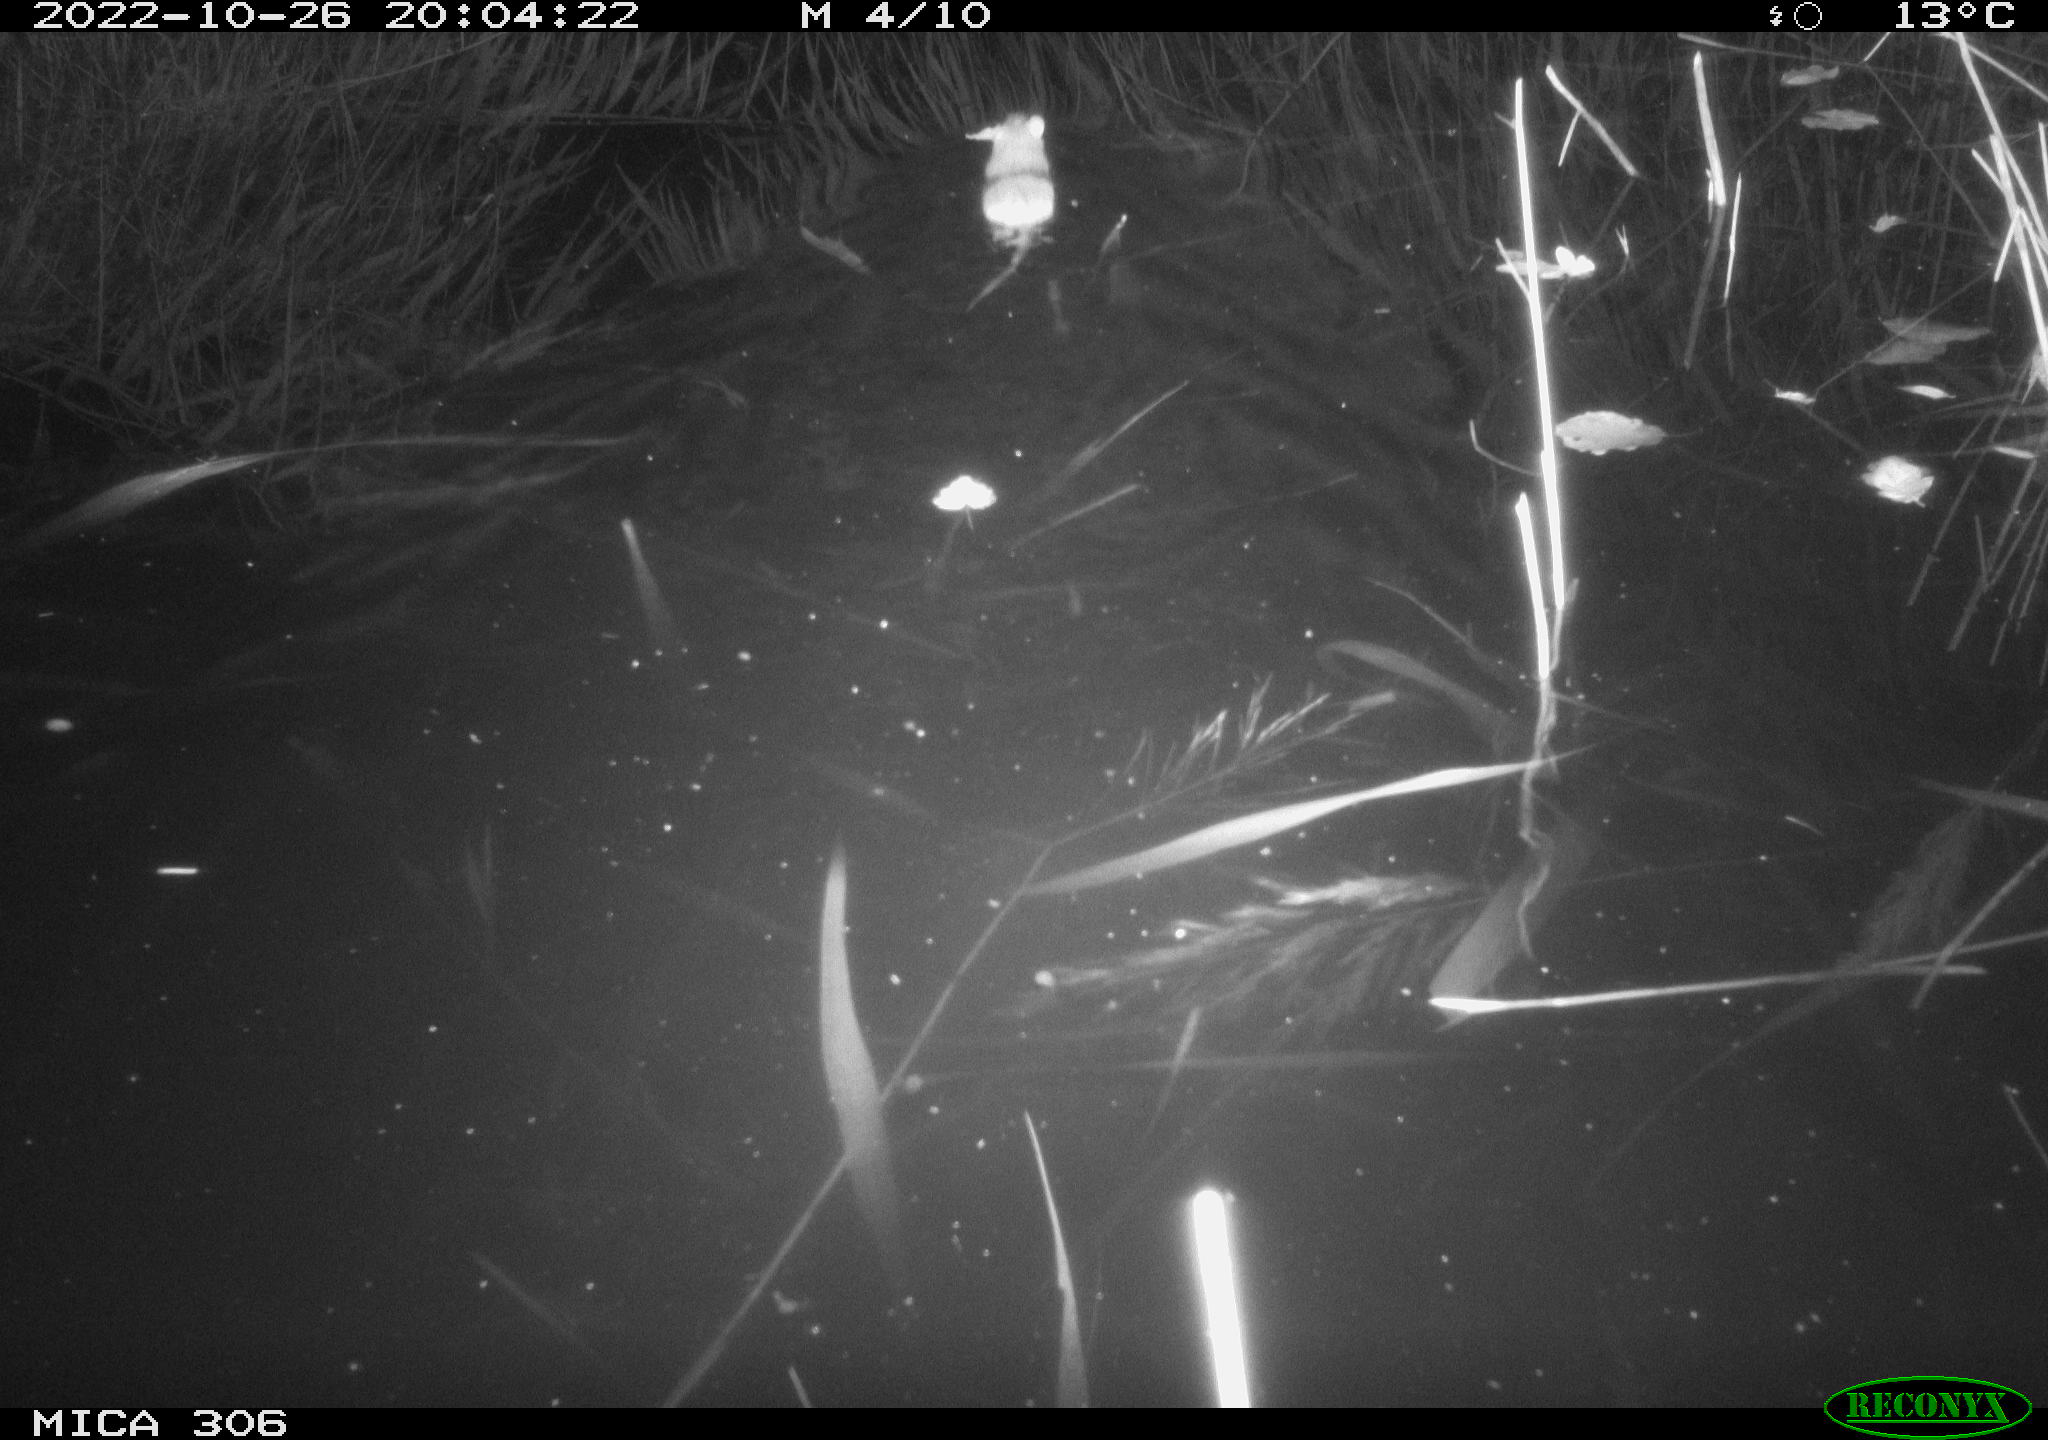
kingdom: Animalia
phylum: Chordata
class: Mammalia
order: Rodentia
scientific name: Rodentia
